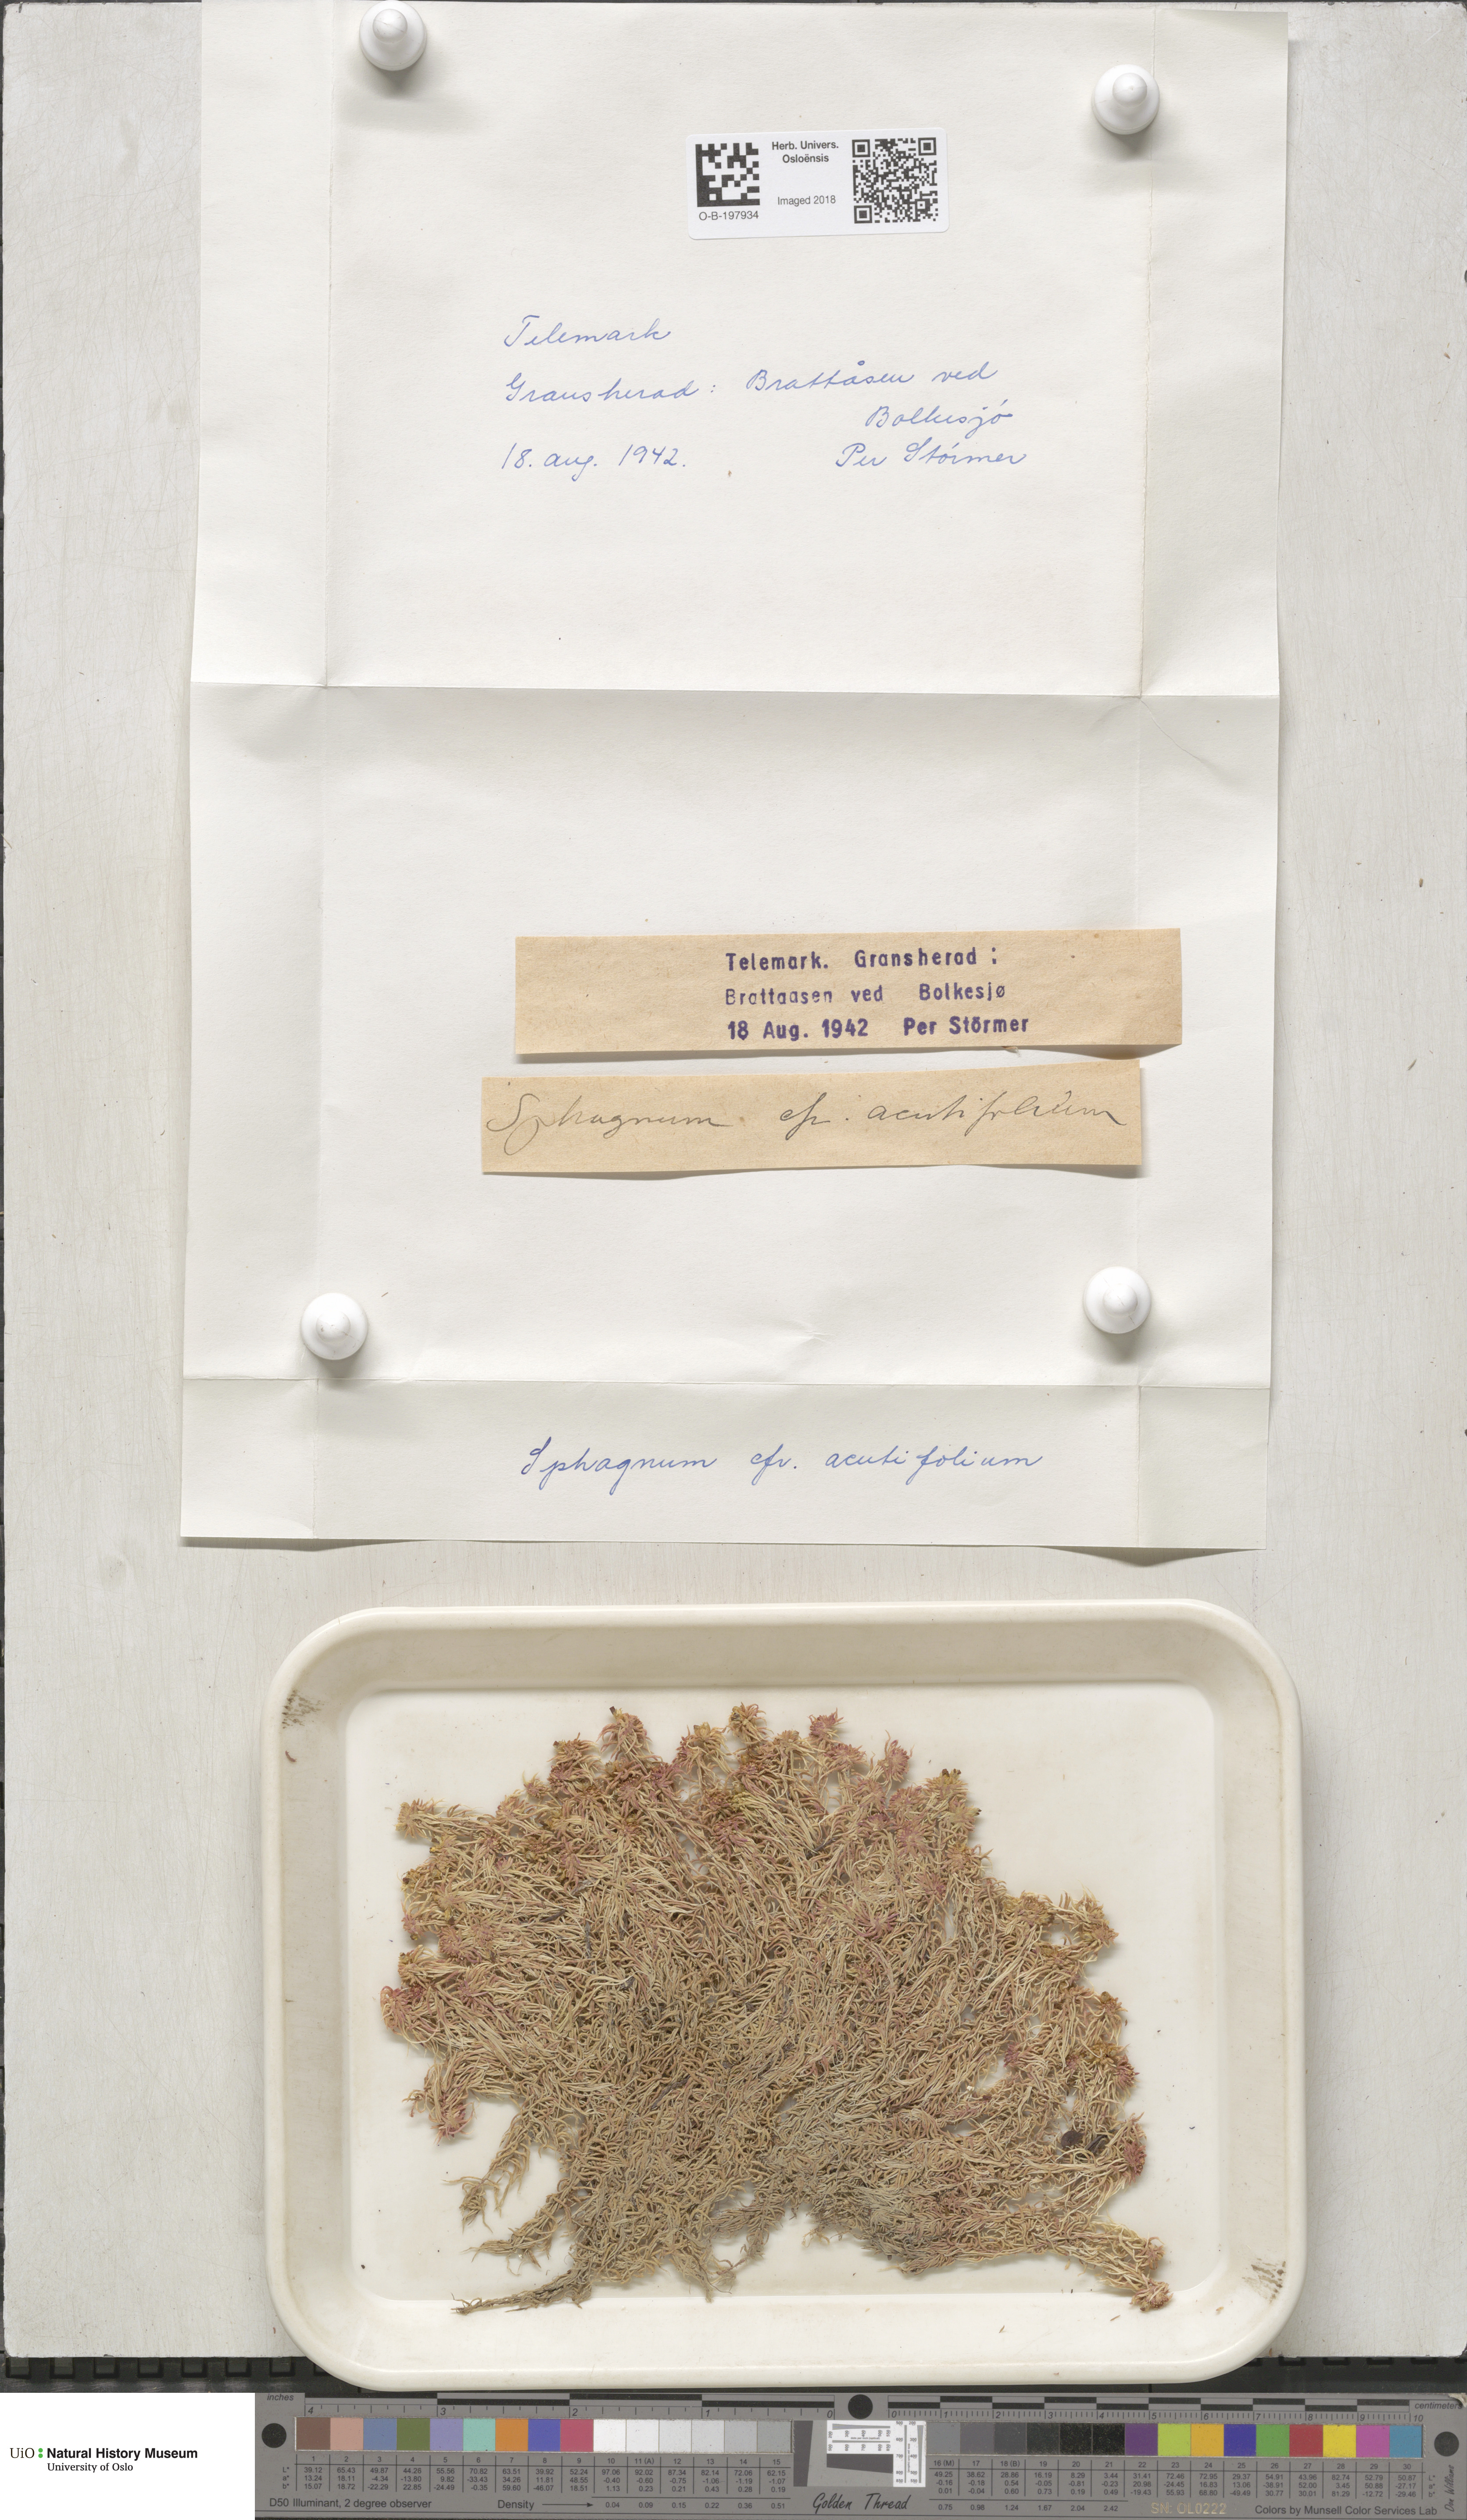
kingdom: Plantae
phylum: Bryophyta
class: Sphagnopsida
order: Sphagnales
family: Sphagnaceae
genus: Sphagnum
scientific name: Sphagnum capillifolium
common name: Small red peat moss
